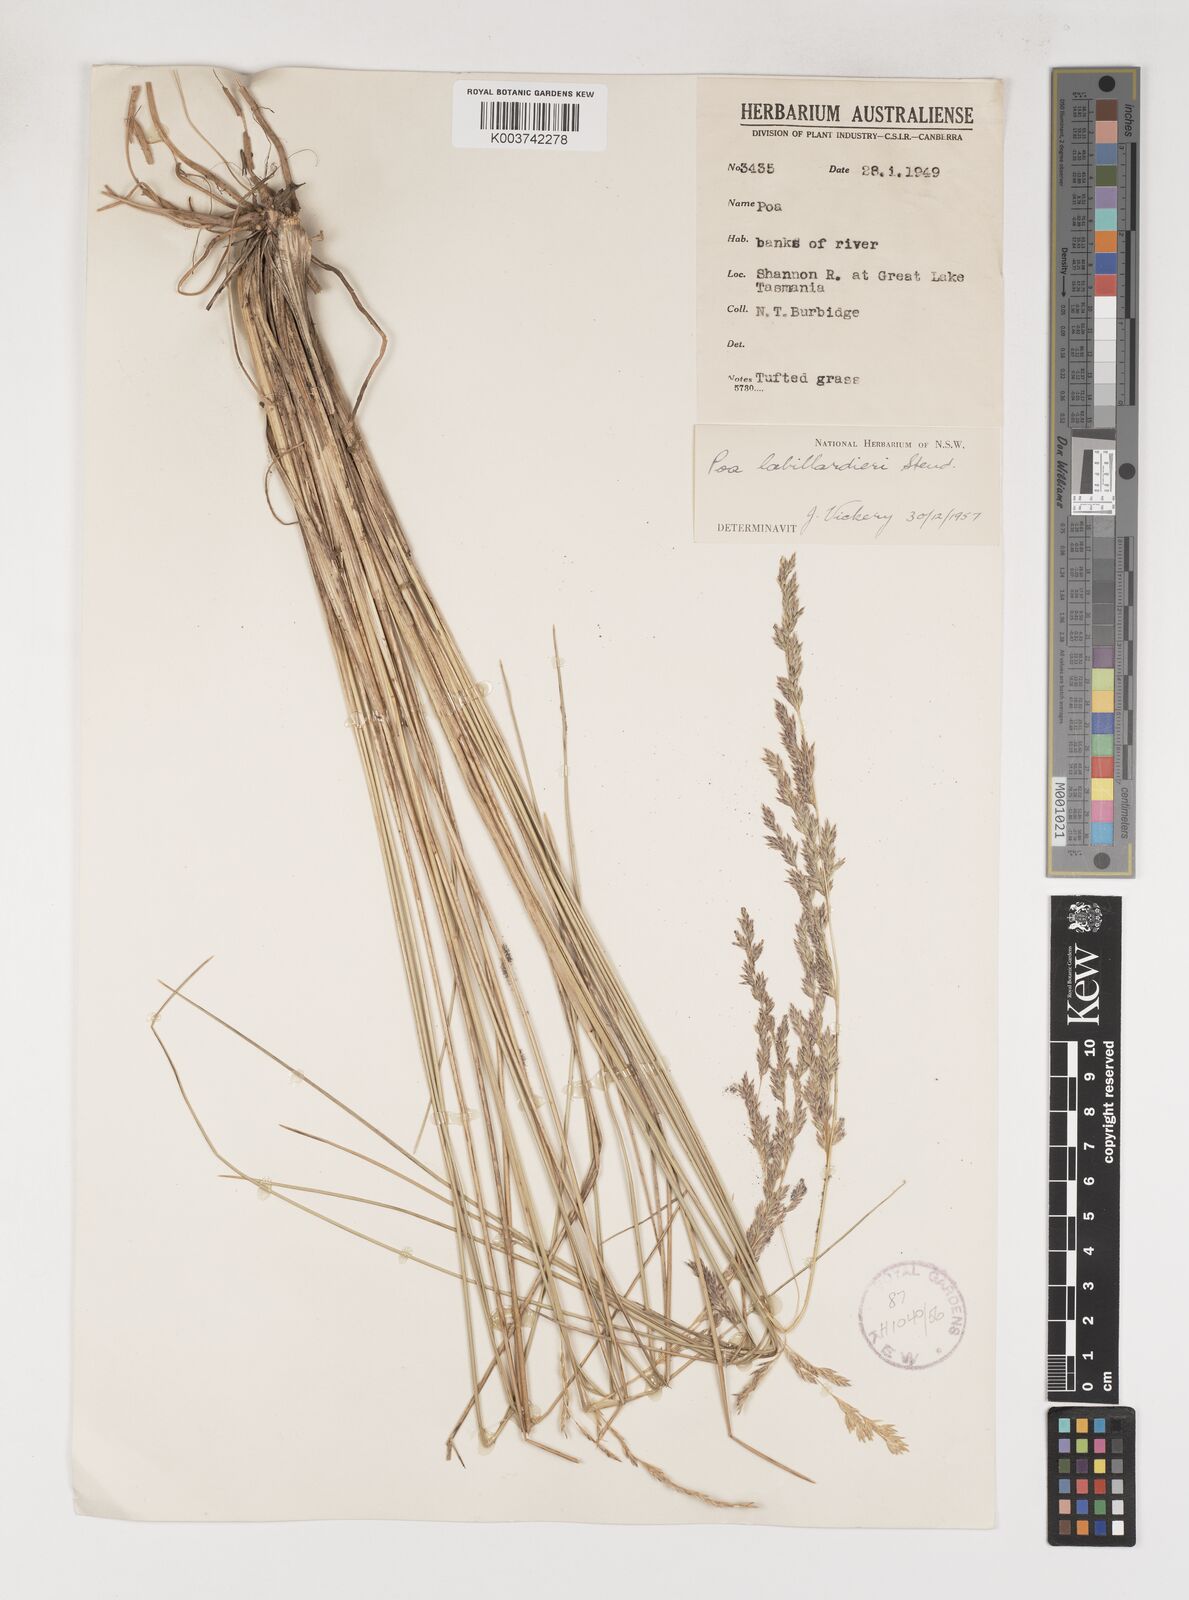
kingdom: Plantae
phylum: Tracheophyta
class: Liliopsida
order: Poales
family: Poaceae
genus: Poa
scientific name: Poa labillardierei
